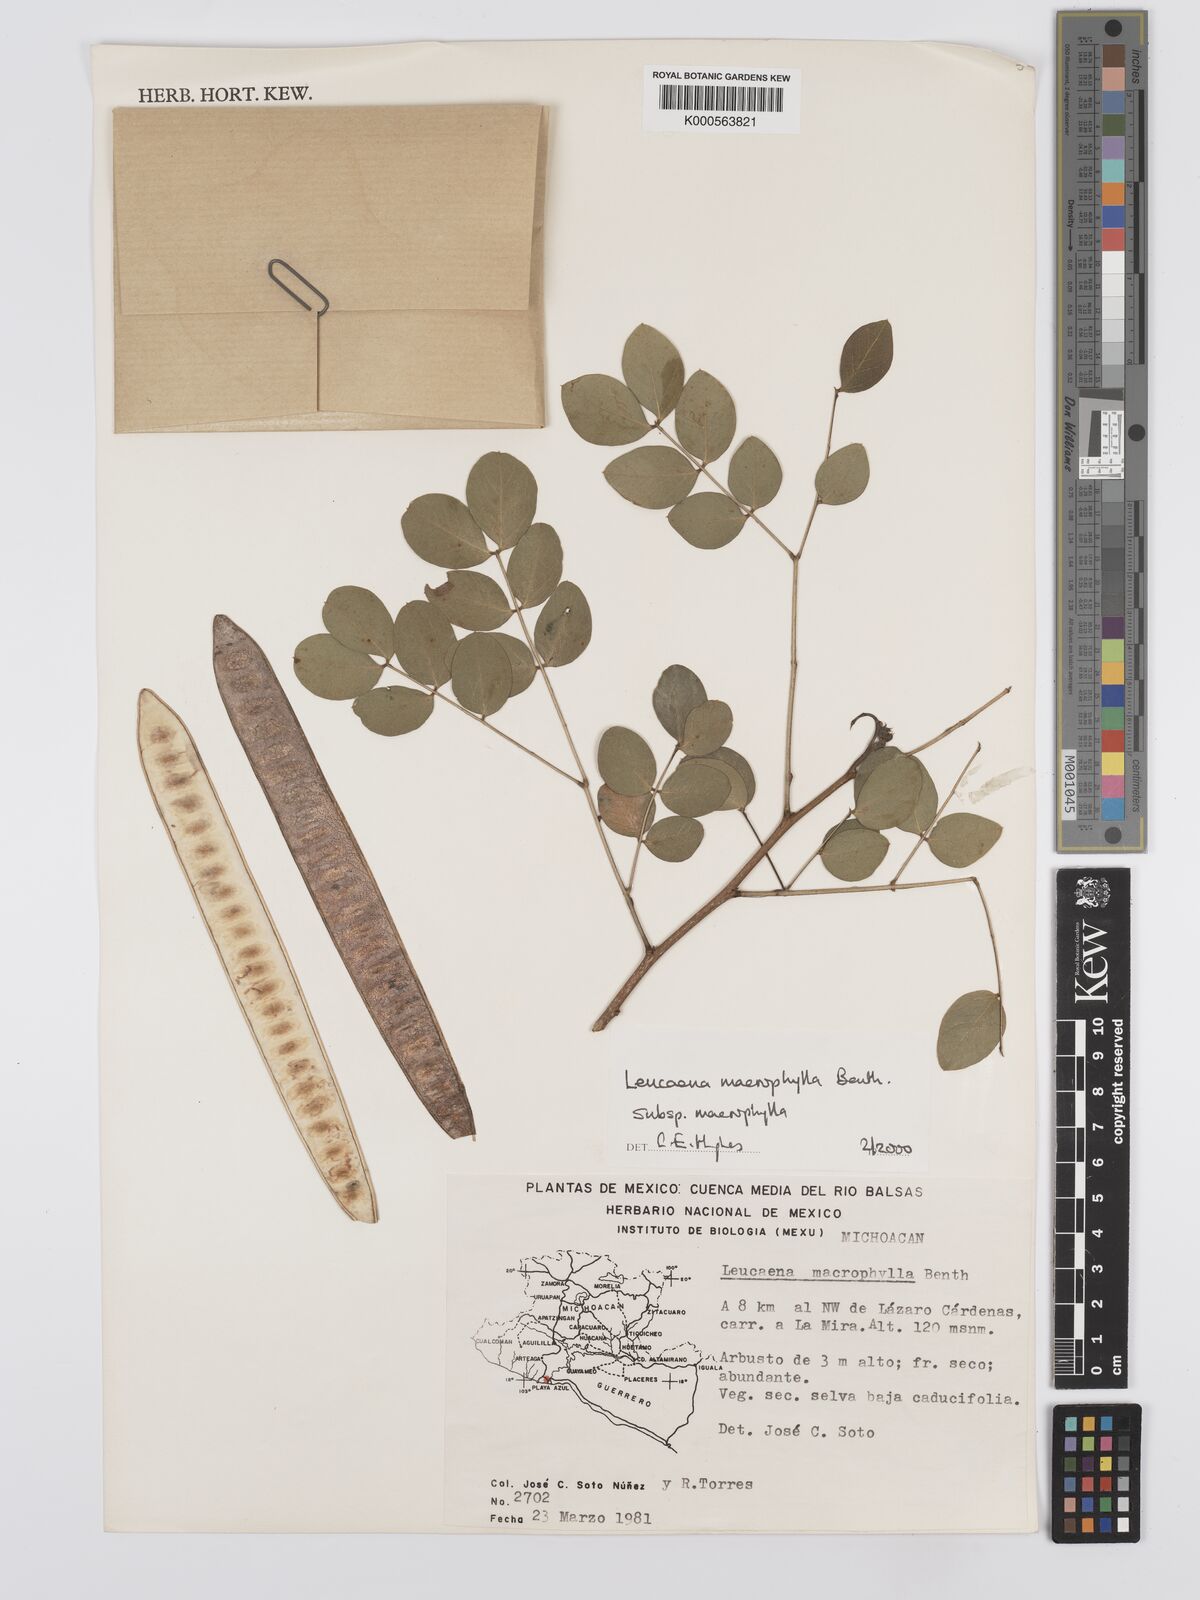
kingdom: Plantae
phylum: Tracheophyta
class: Magnoliopsida
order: Fabales
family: Fabaceae
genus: Leucaena
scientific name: Leucaena macrophylla
